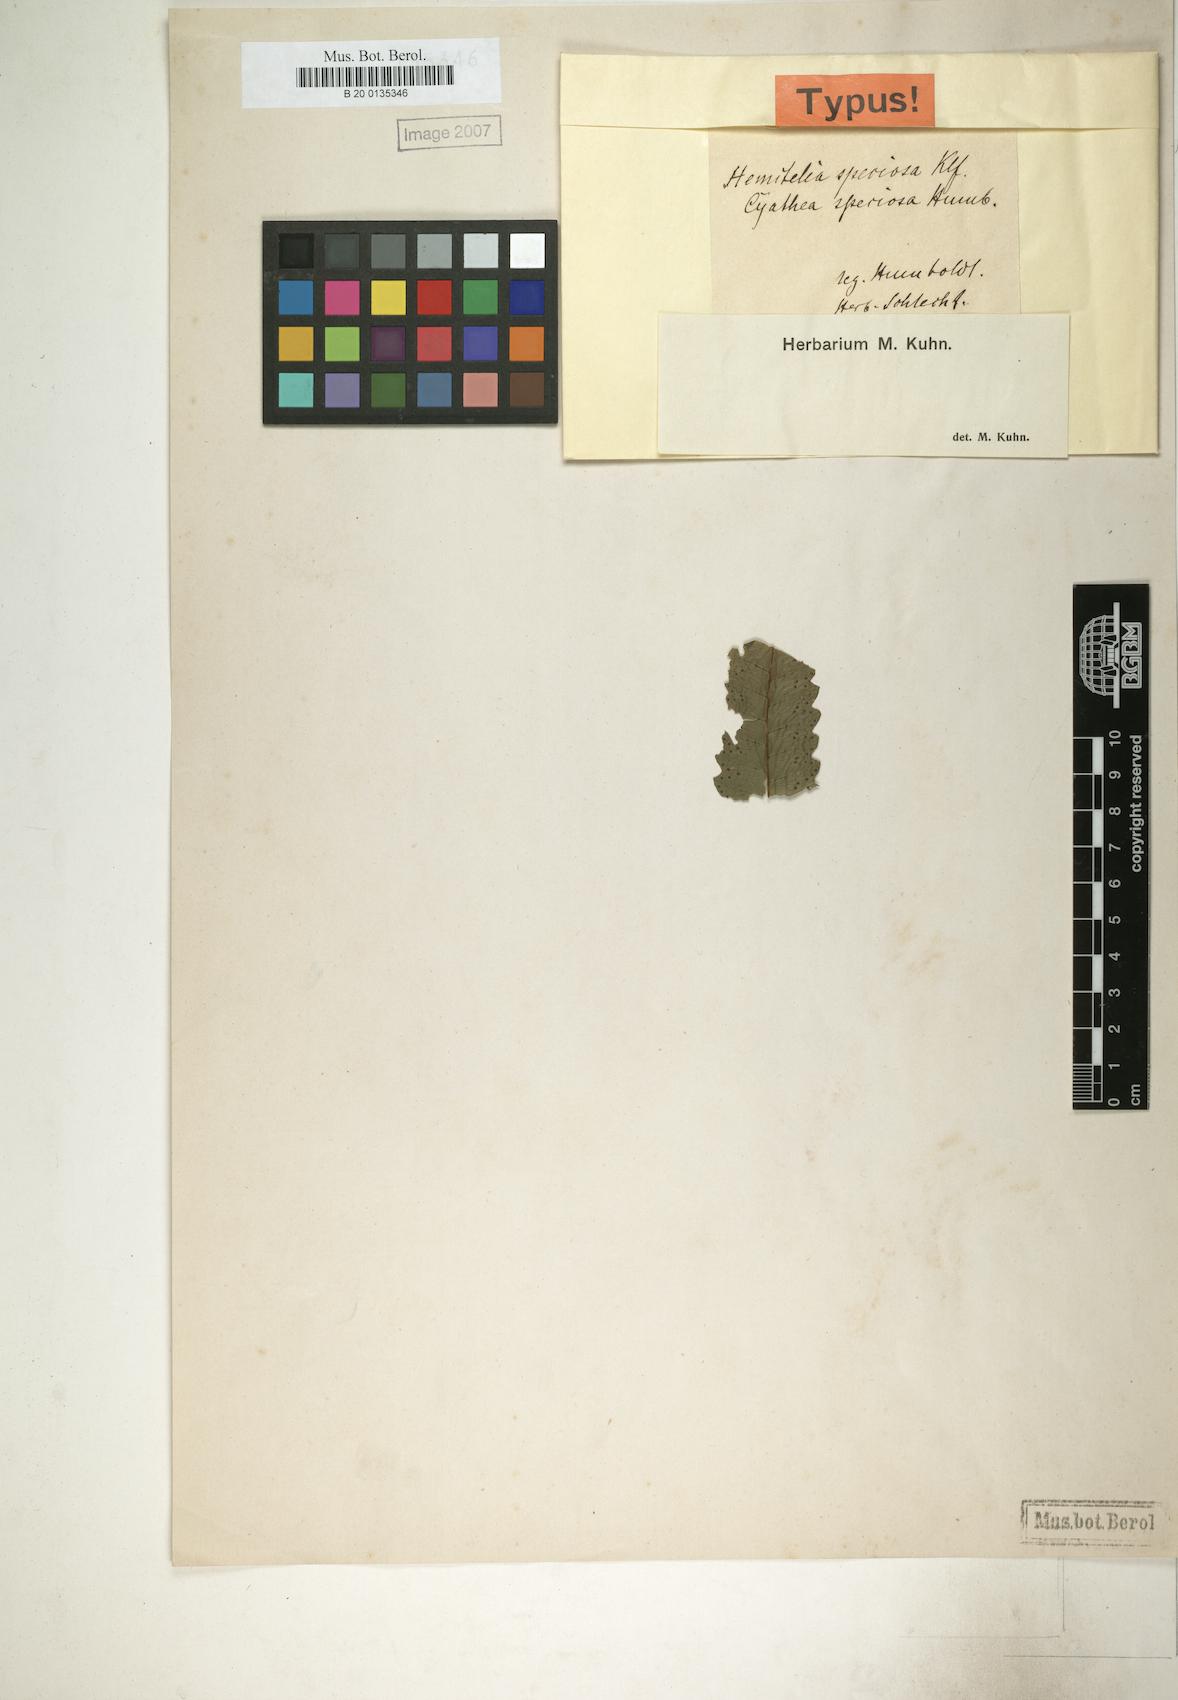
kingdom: Plantae
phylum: Tracheophyta
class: Polypodiopsida
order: Cyatheales
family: Cyatheaceae
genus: Cyathea
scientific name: Cyathea speciosa
